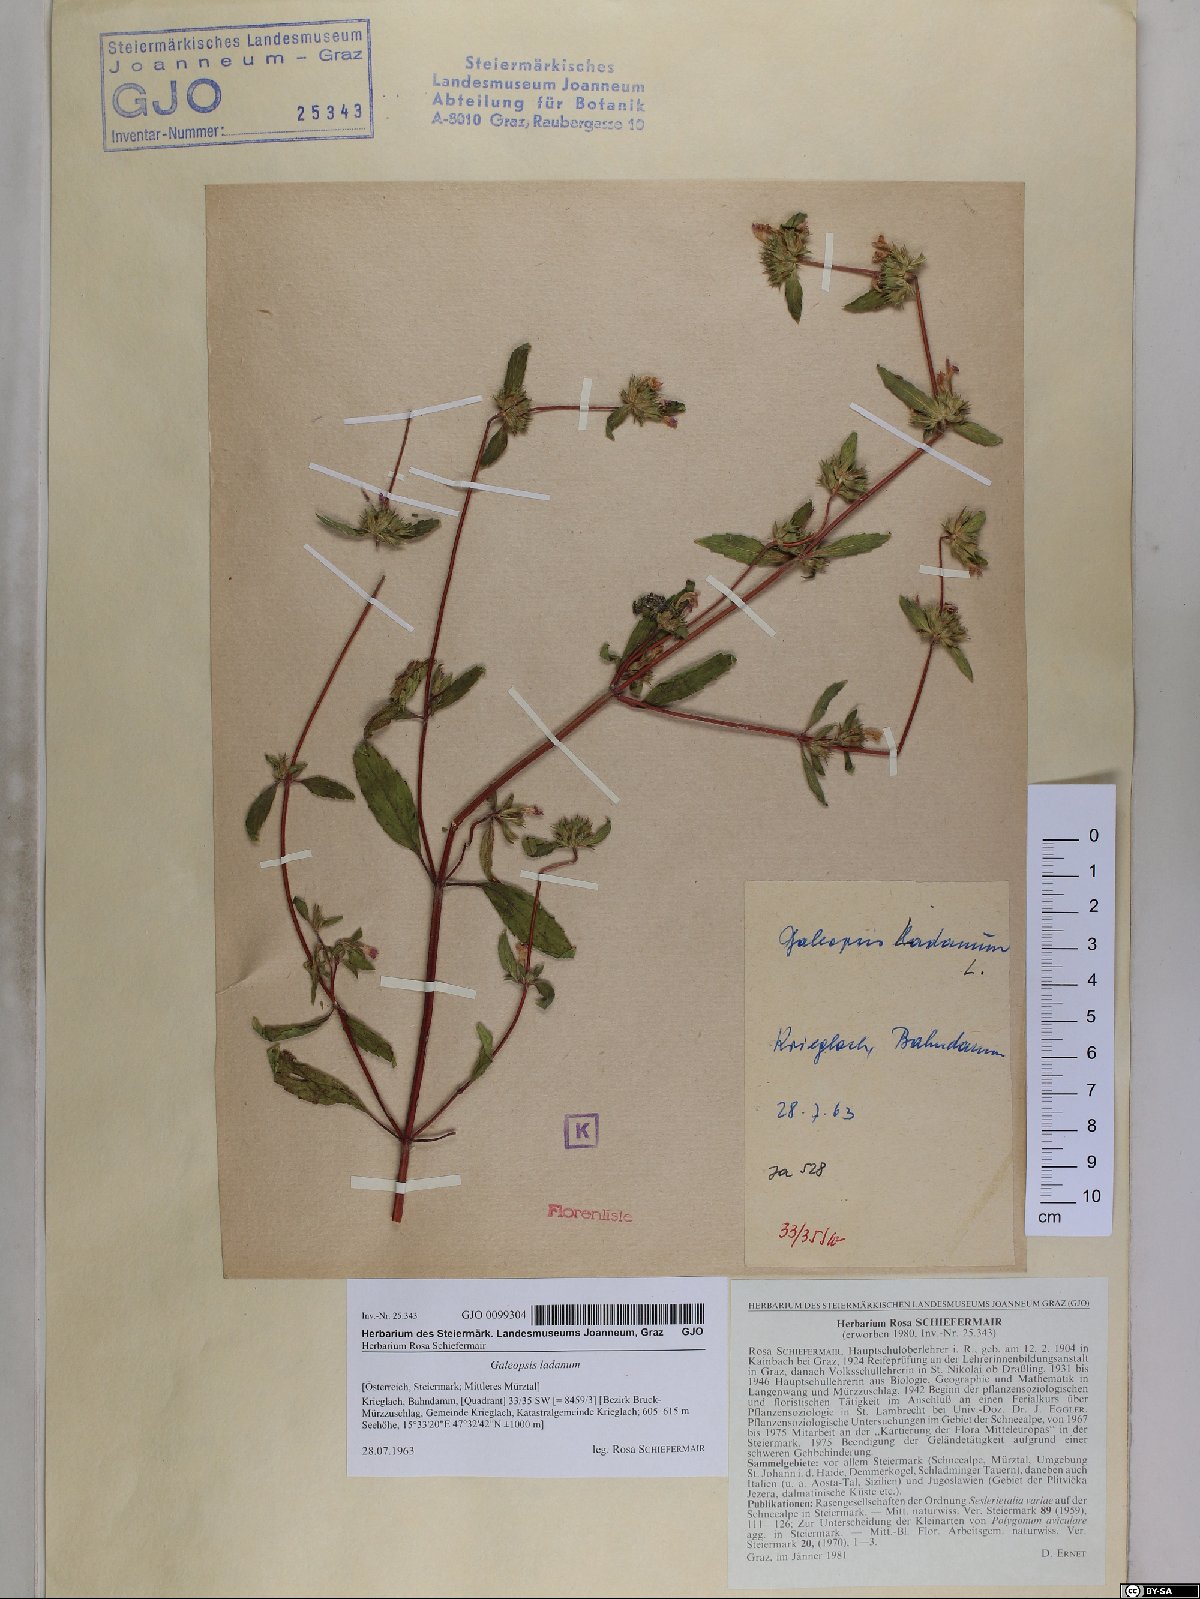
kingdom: Plantae
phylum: Tracheophyta
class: Magnoliopsida
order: Lamiales
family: Lamiaceae
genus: Galeopsis
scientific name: Galeopsis ladanum
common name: Broad-leaved hemp-nettle
